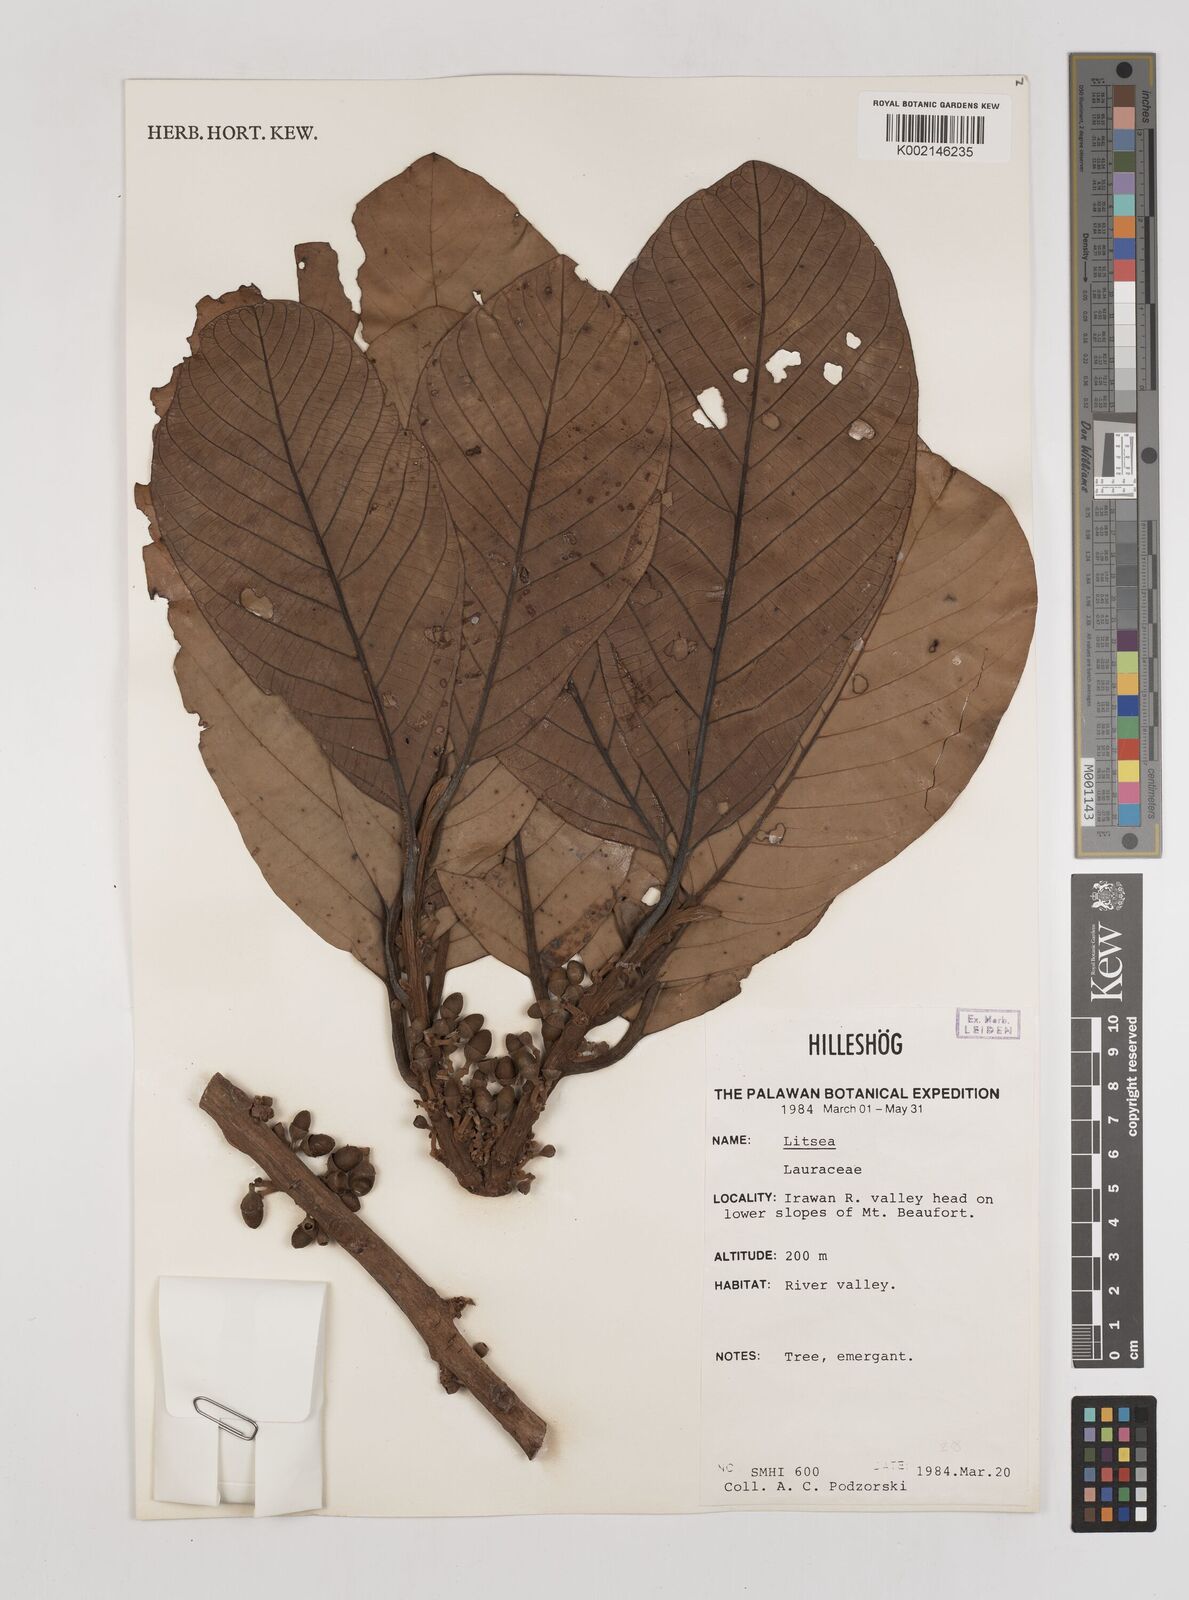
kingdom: Plantae
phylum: Tracheophyta
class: Magnoliopsida
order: Laurales
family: Lauraceae
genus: Litsea
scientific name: Litsea
